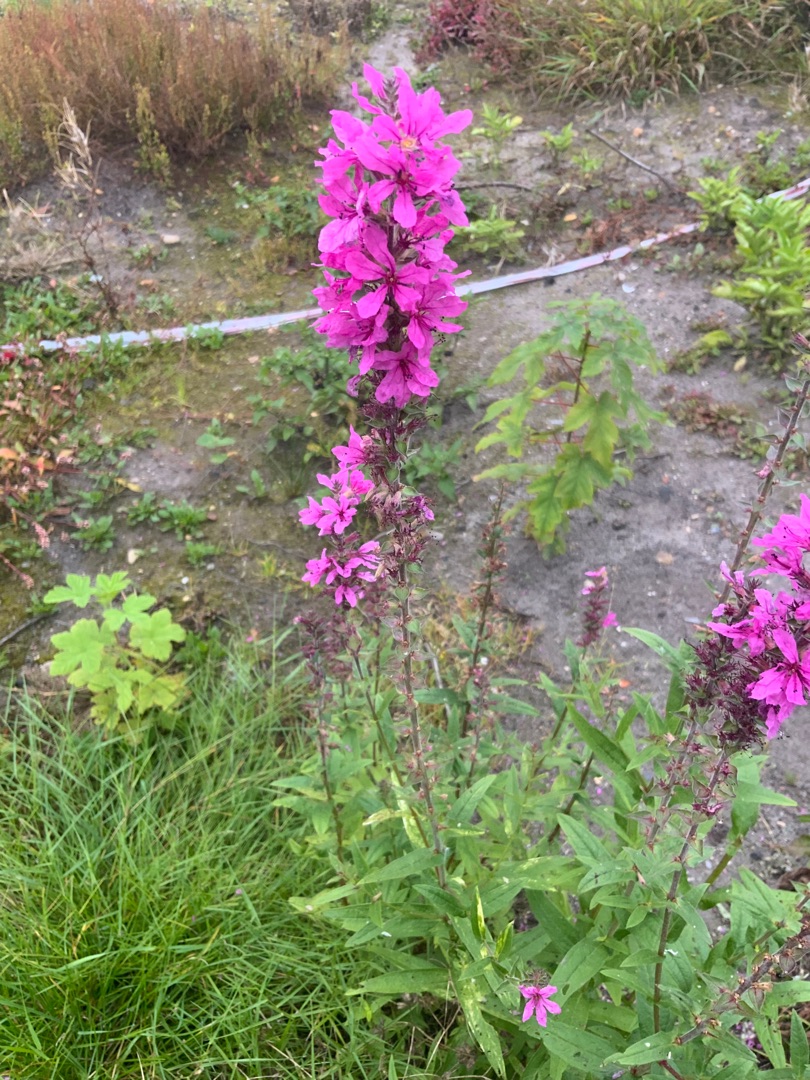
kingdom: Plantae
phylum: Tracheophyta
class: Magnoliopsida
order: Myrtales
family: Lythraceae
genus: Lythrum
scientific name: Lythrum salicaria
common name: Kattehale
